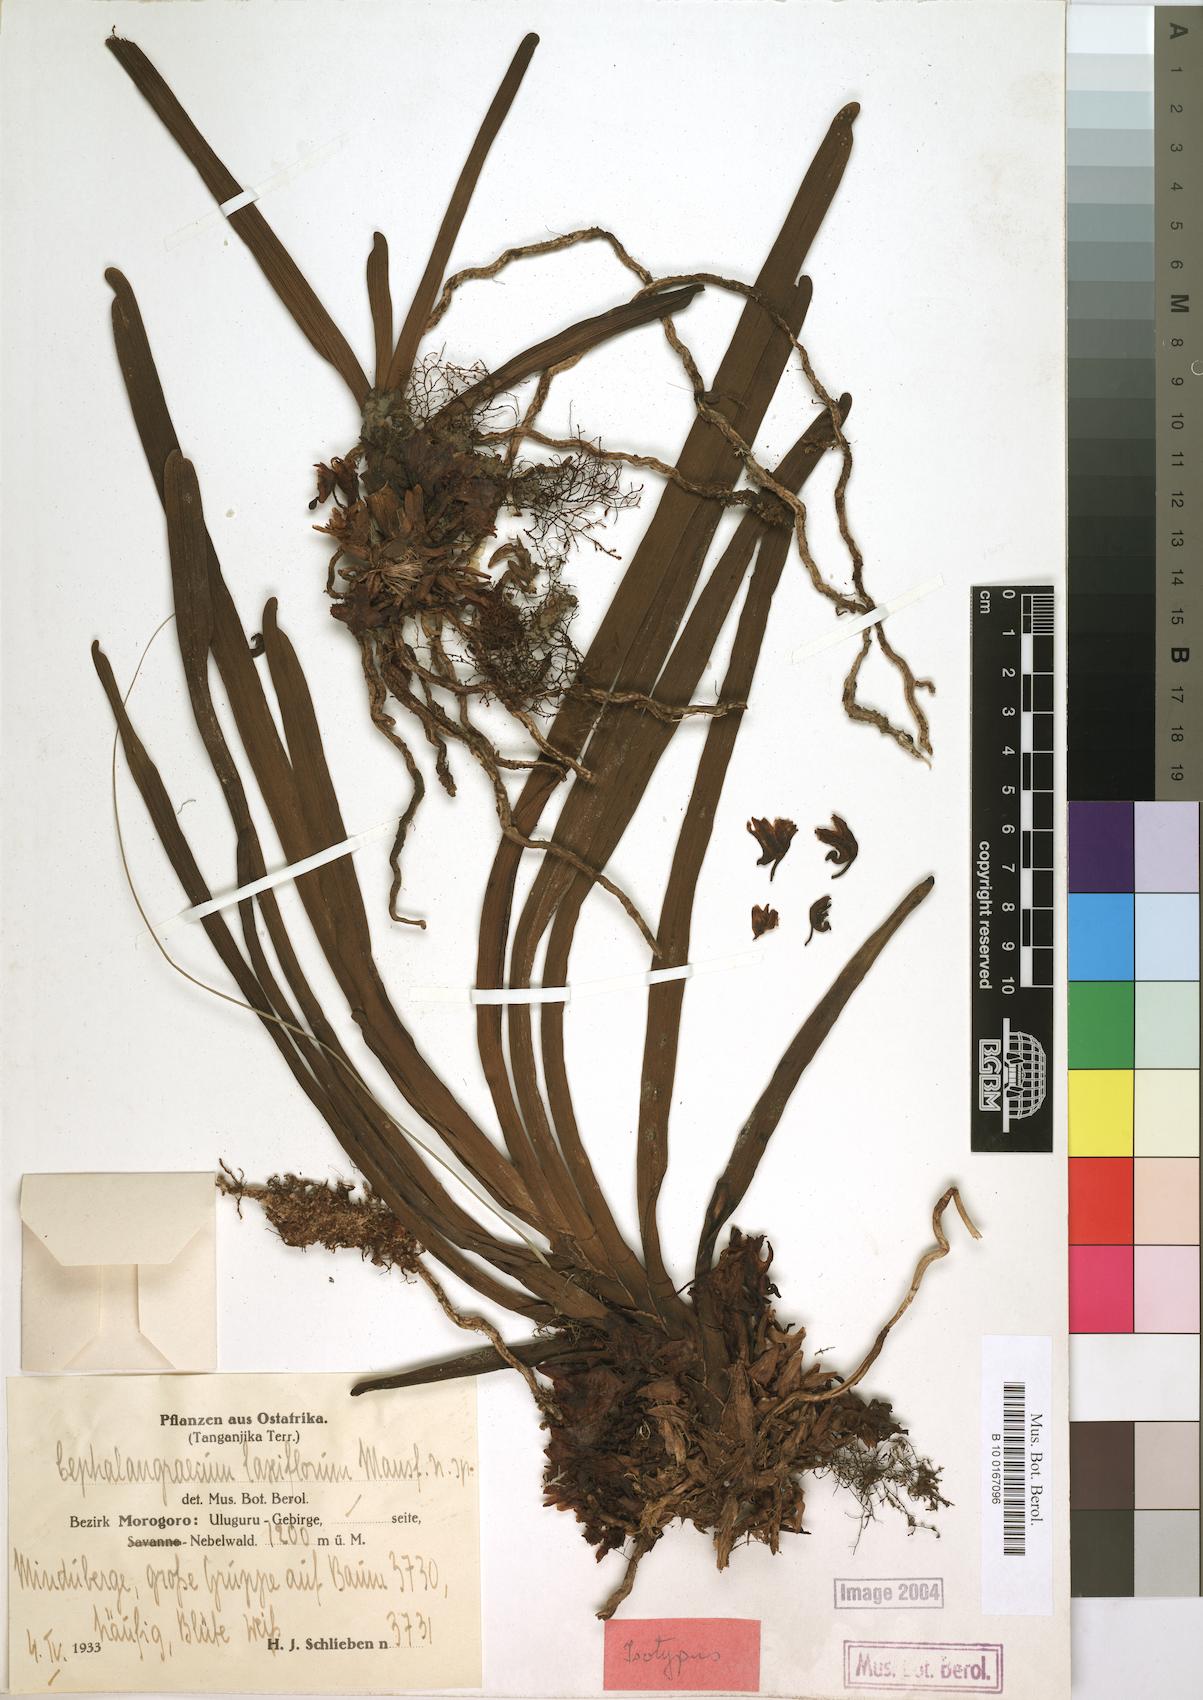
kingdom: Plantae
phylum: Tracheophyta
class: Liliopsida
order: Asparagales
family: Orchidaceae
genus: Ancistrorhynchus
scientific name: Ancistrorhynchus laxiflorus
